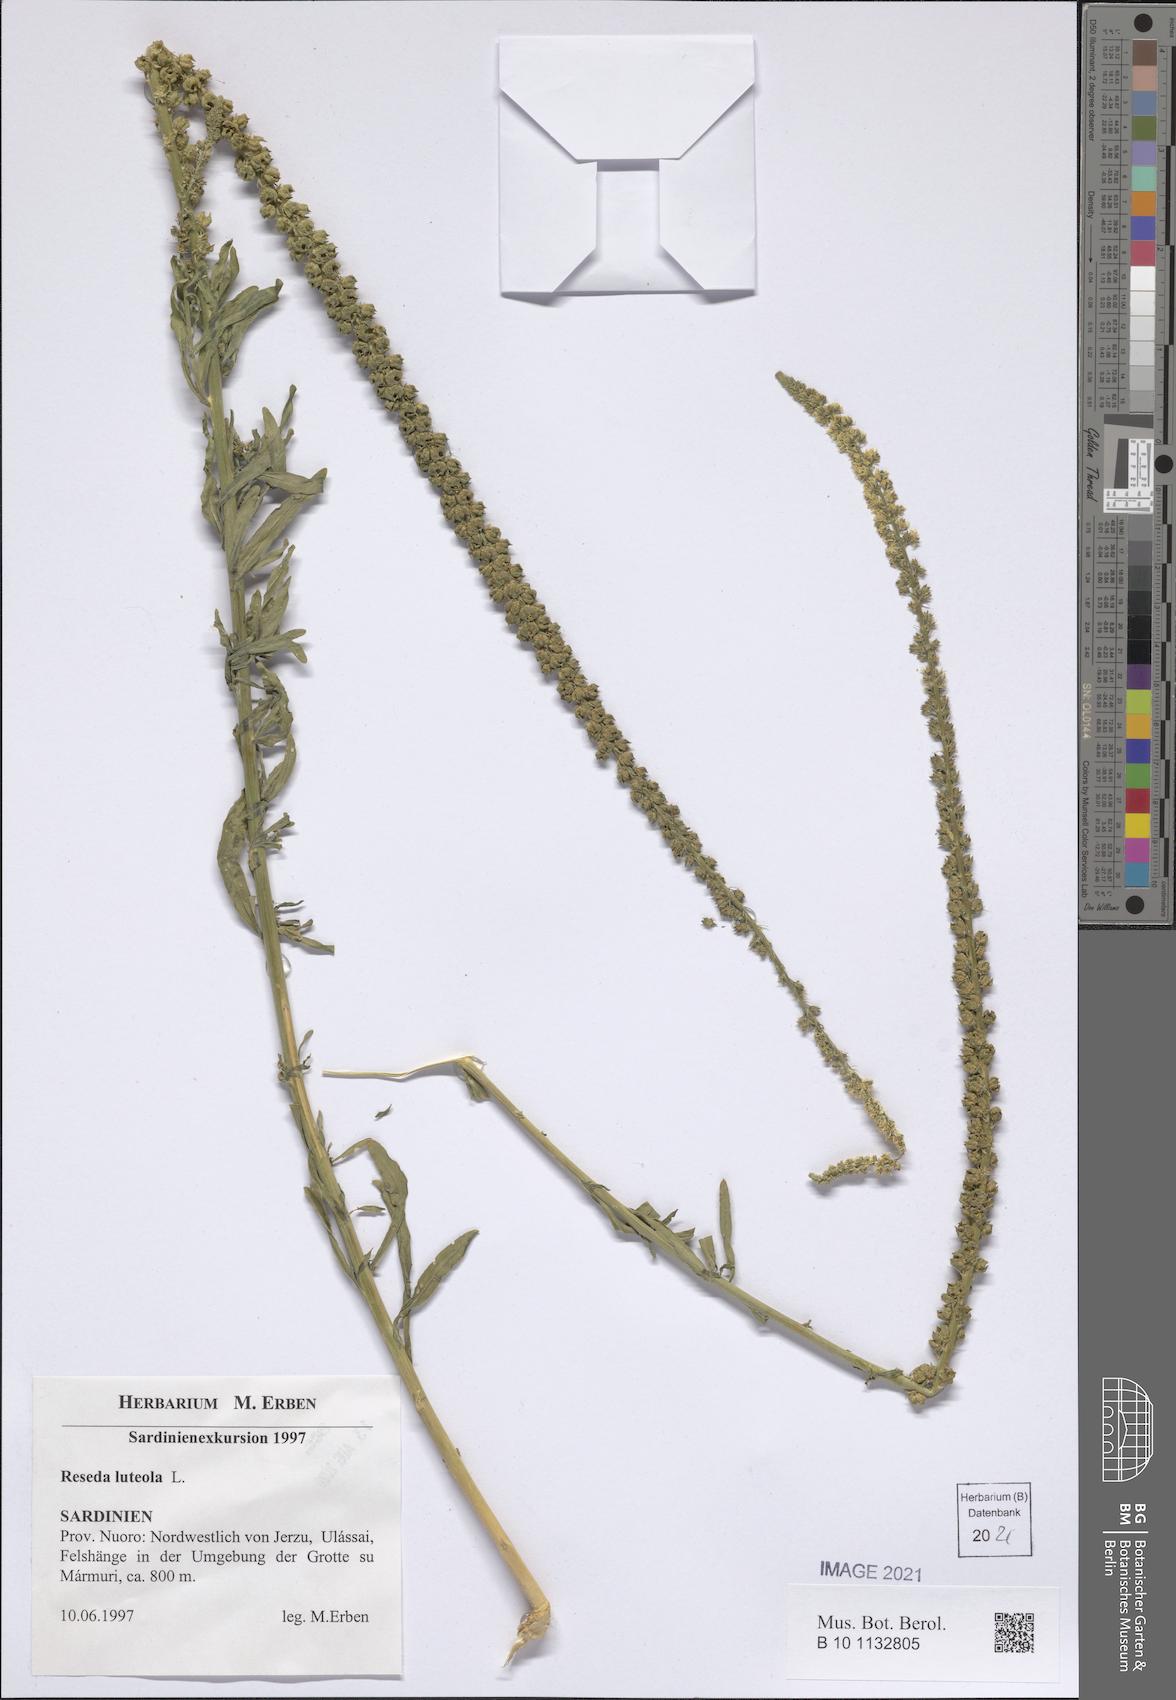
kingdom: Plantae
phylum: Tracheophyta
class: Magnoliopsida
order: Brassicales
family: Resedaceae
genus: Reseda
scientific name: Reseda lutea
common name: Wild mignonette
